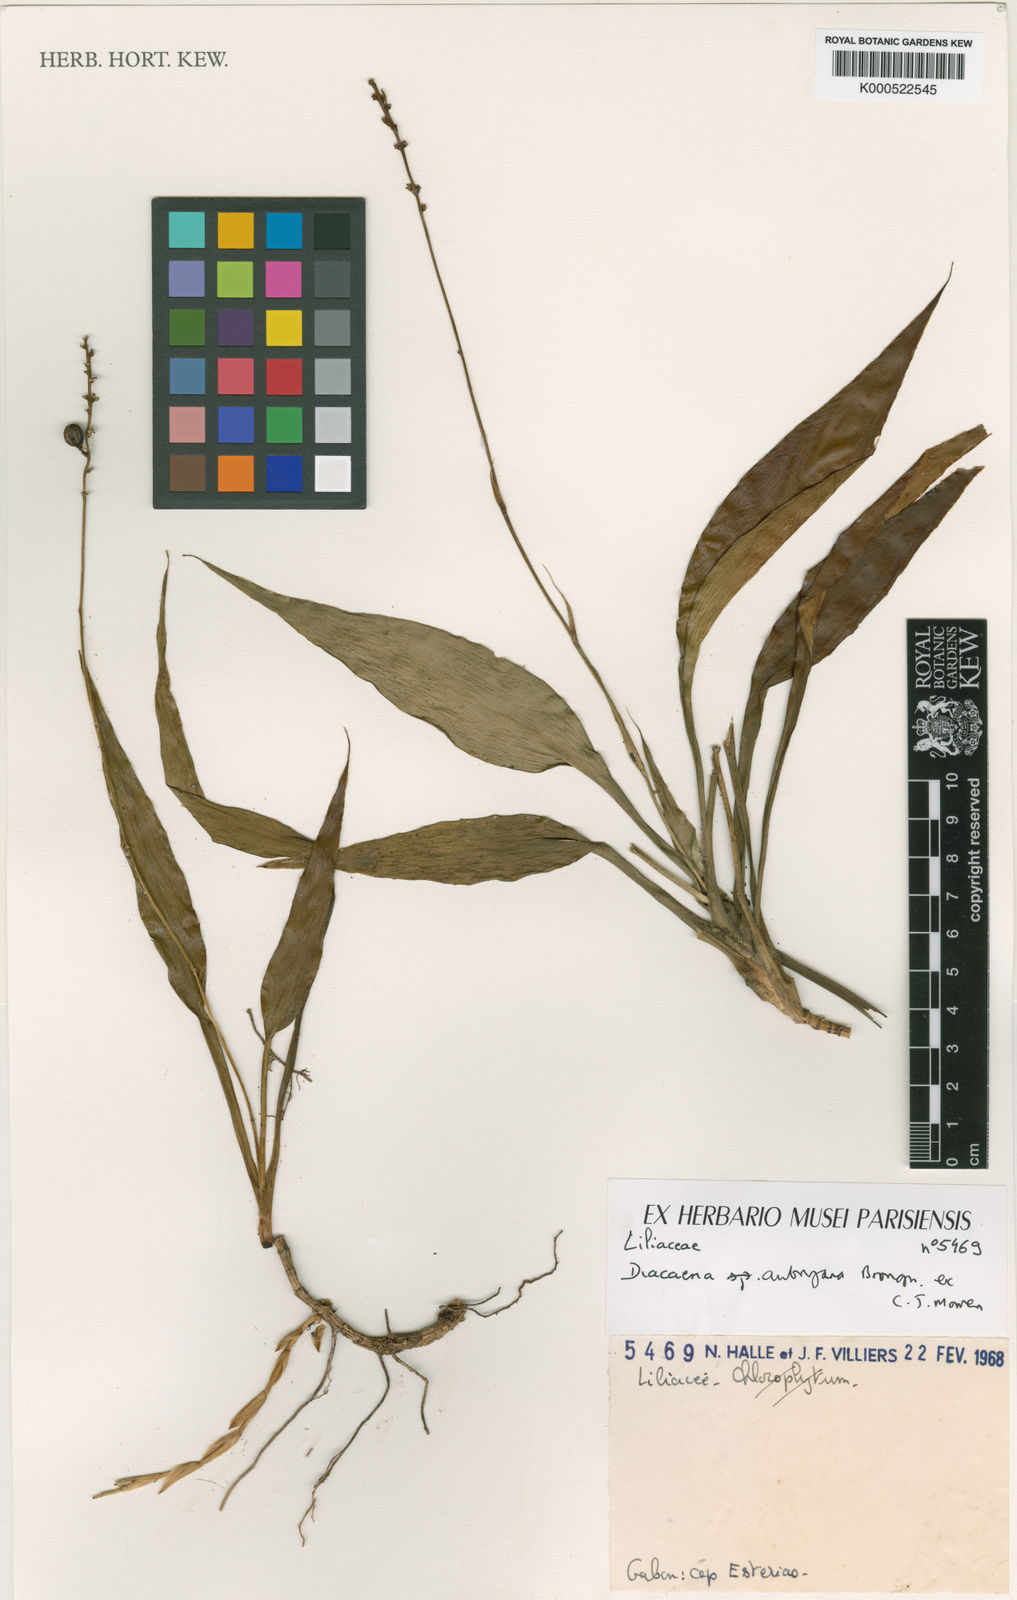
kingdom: Plantae
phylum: Tracheophyta
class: Liliopsida
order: Asparagales
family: Asparagaceae
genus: Dracaena
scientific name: Dracaena braunii
